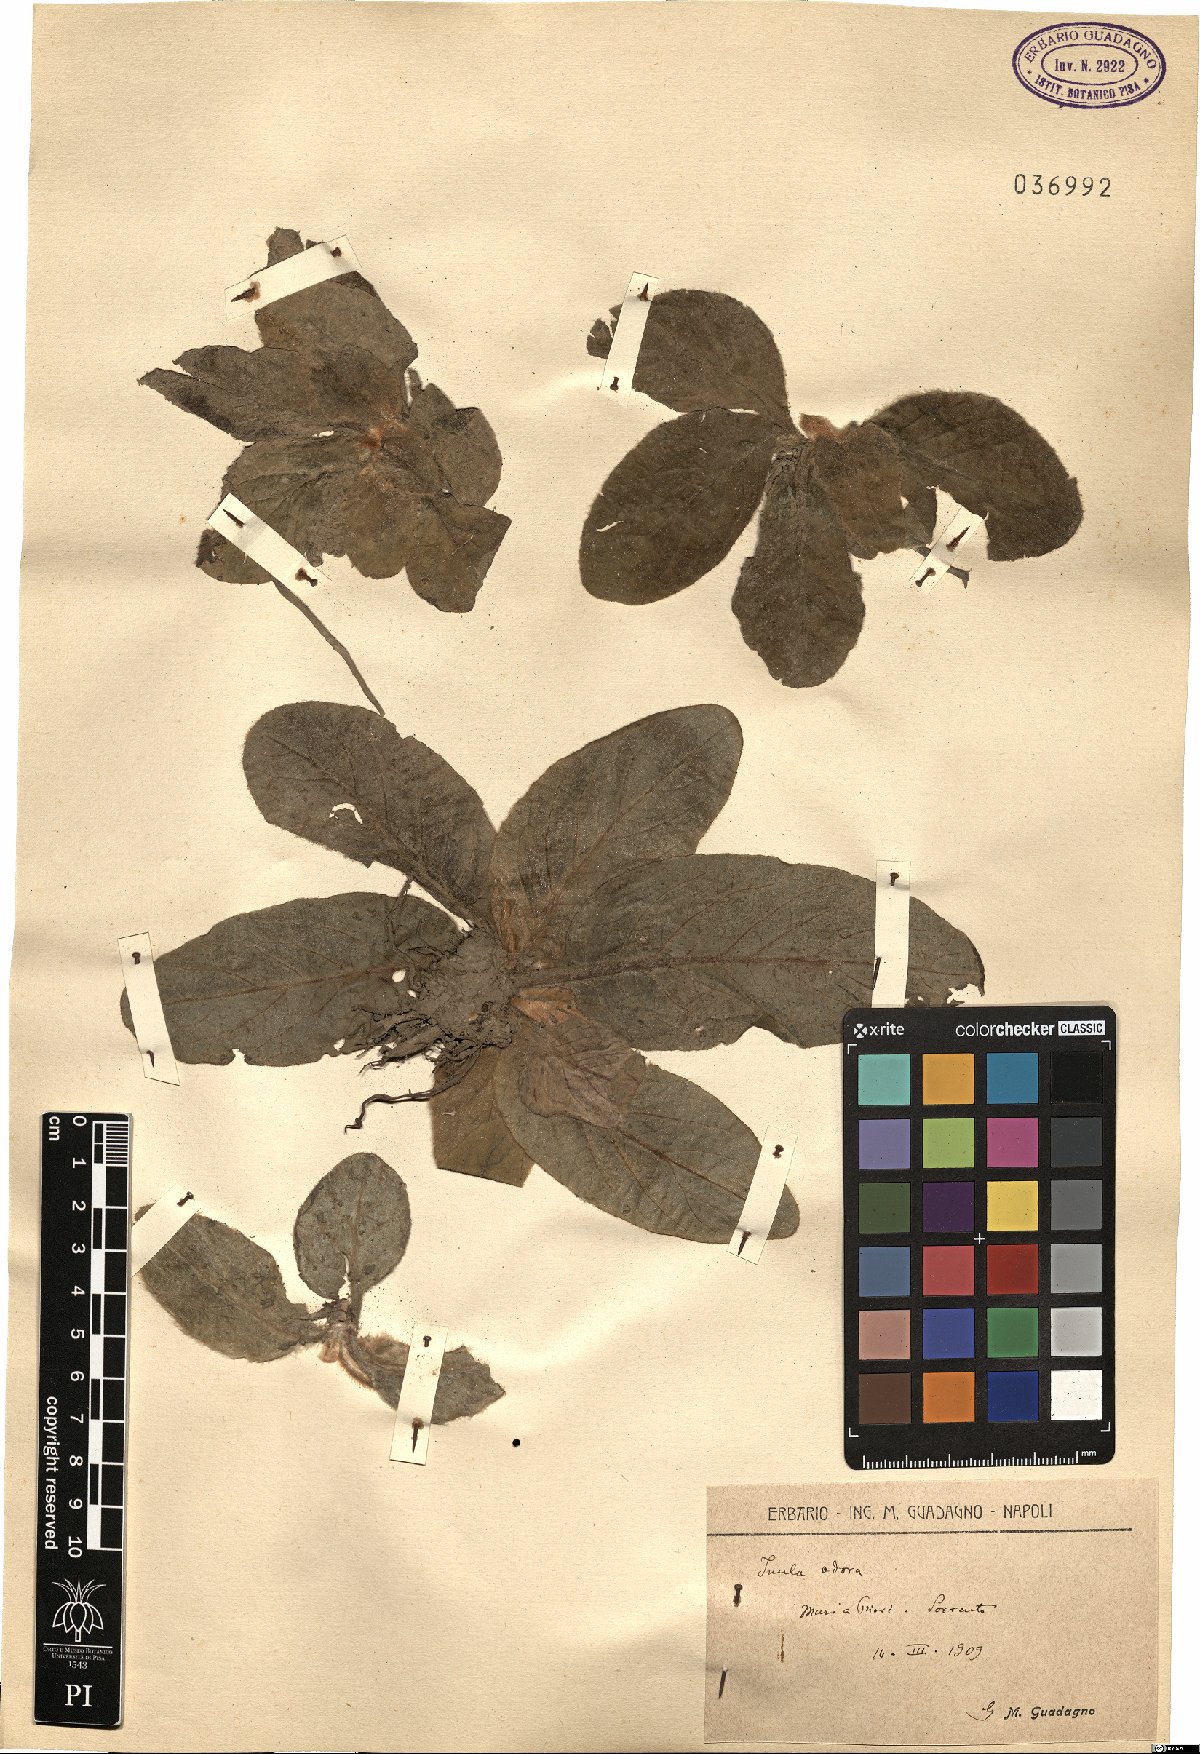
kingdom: Plantae
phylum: Tracheophyta
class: Magnoliopsida
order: Asterales
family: Asteraceae
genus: Pulicaria
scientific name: Pulicaria odora
